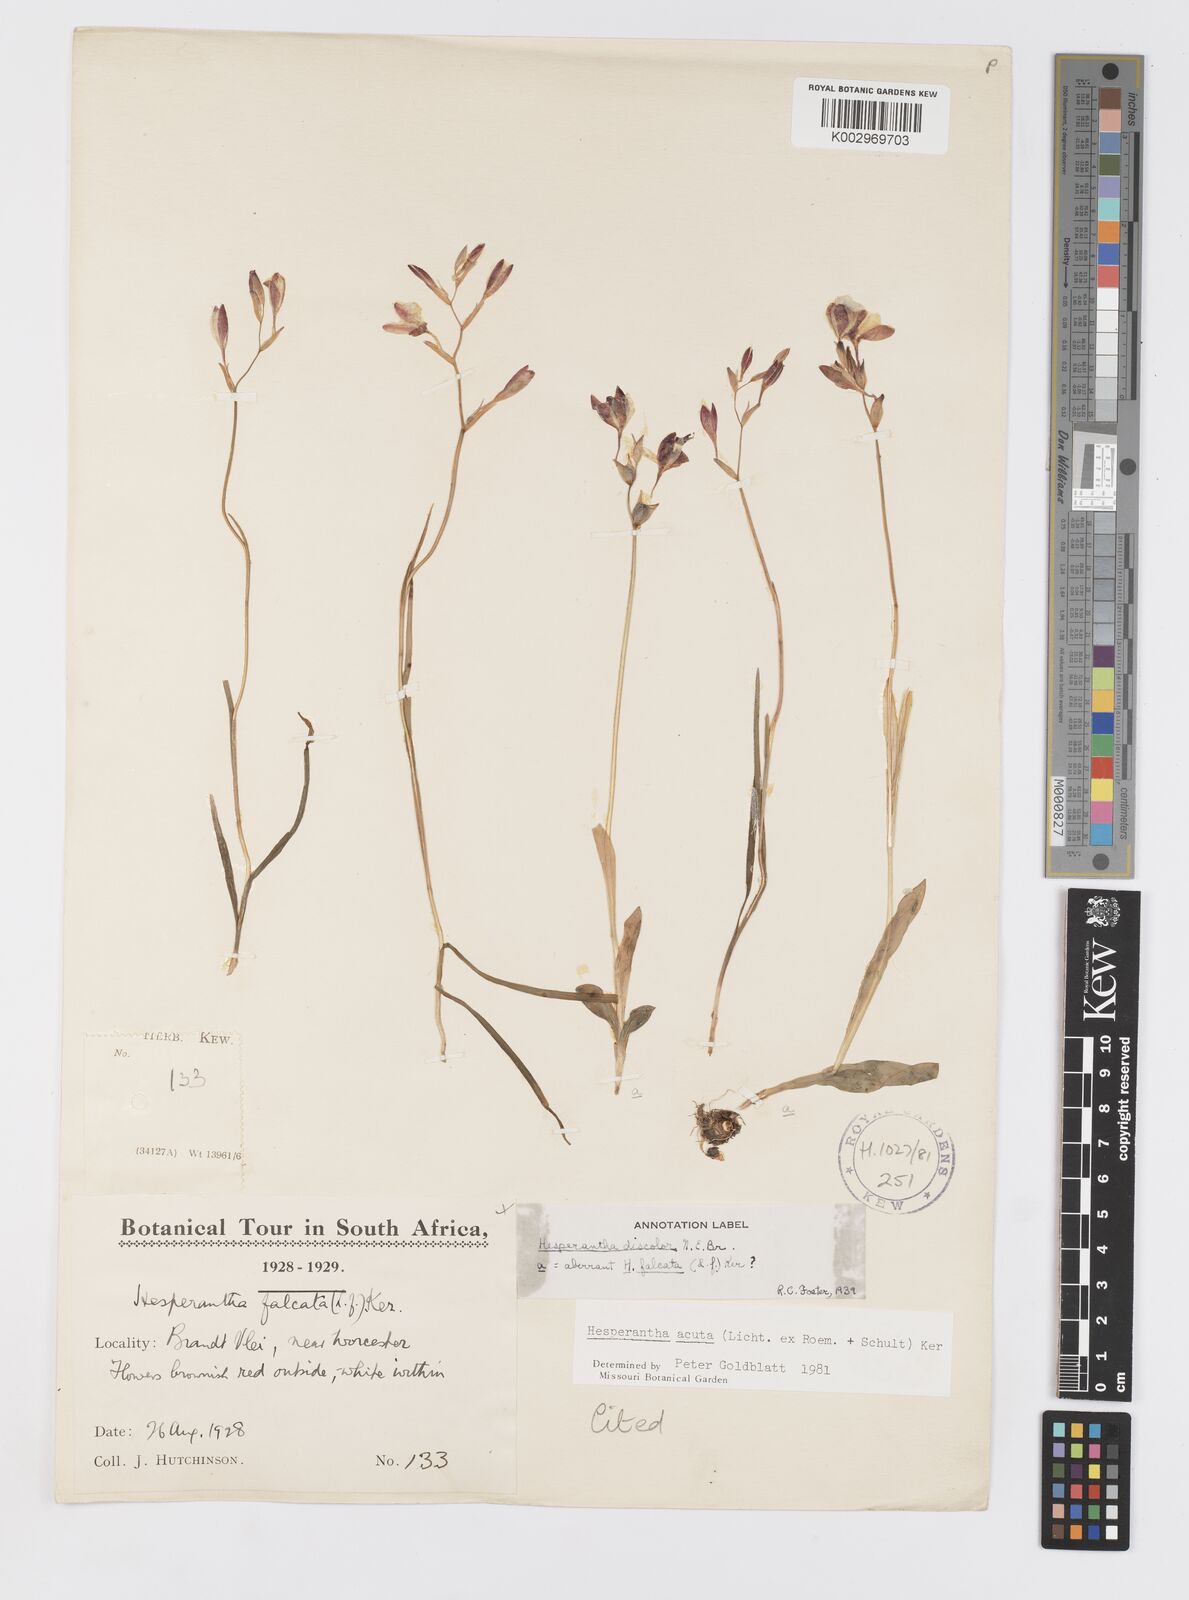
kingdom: Plantae
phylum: Tracheophyta
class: Liliopsida
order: Asparagales
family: Iridaceae
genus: Hesperantha
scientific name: Hesperantha acuta
